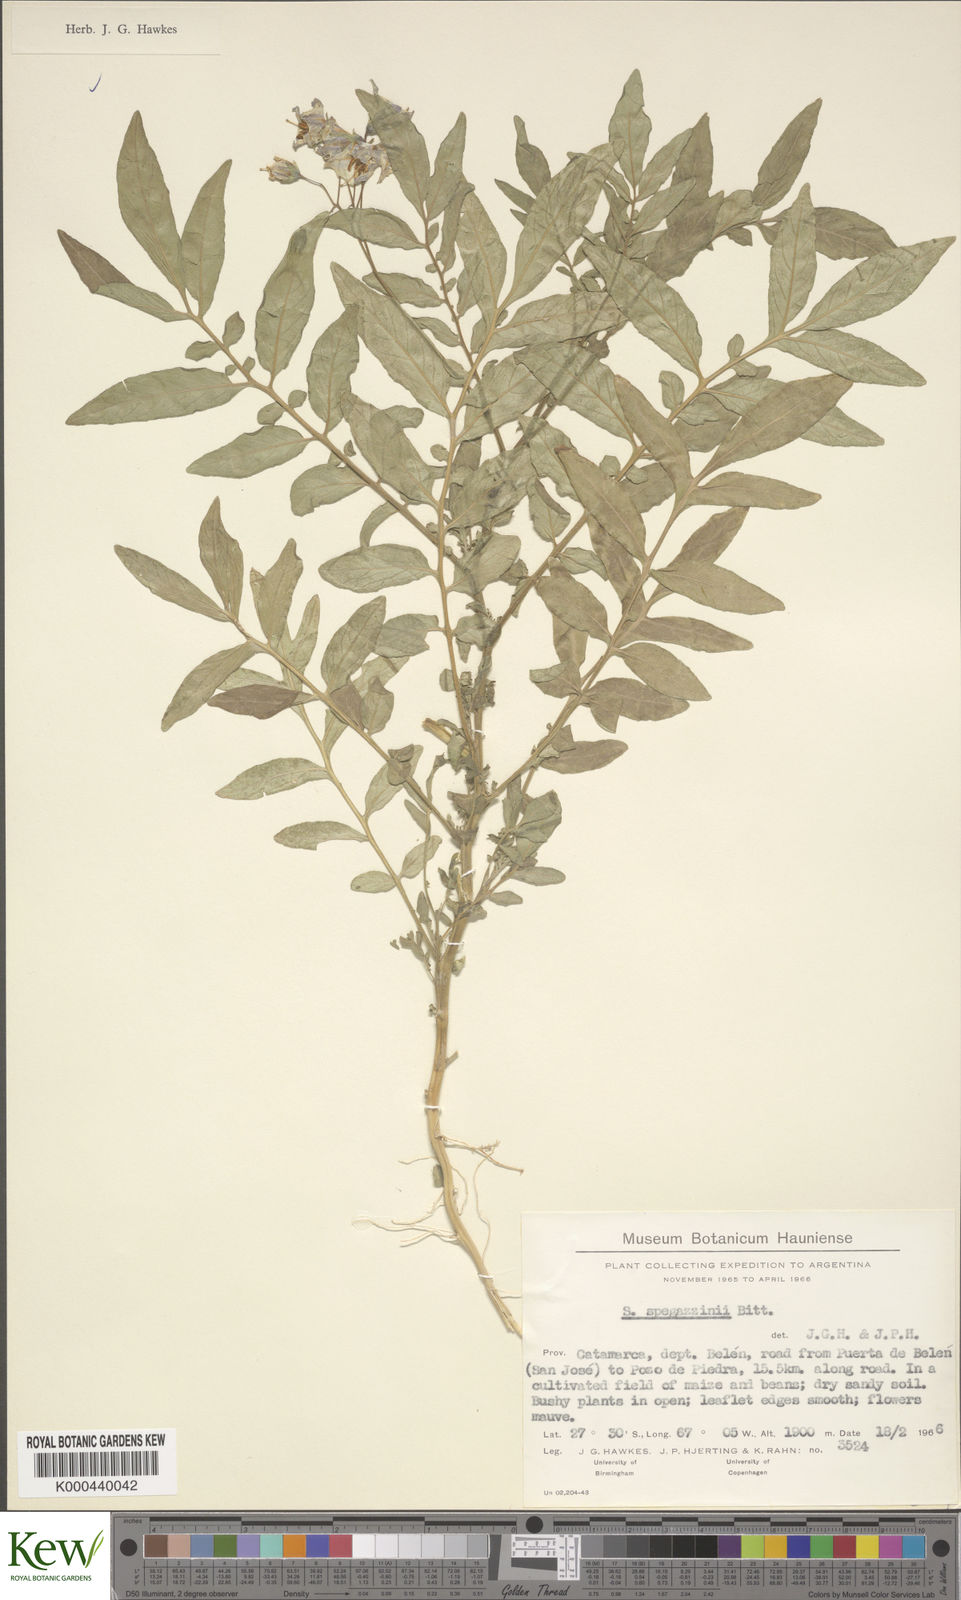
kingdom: Plantae
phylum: Tracheophyta
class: Magnoliopsida
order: Solanales
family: Solanaceae
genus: Solanum
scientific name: Solanum brevicaule
